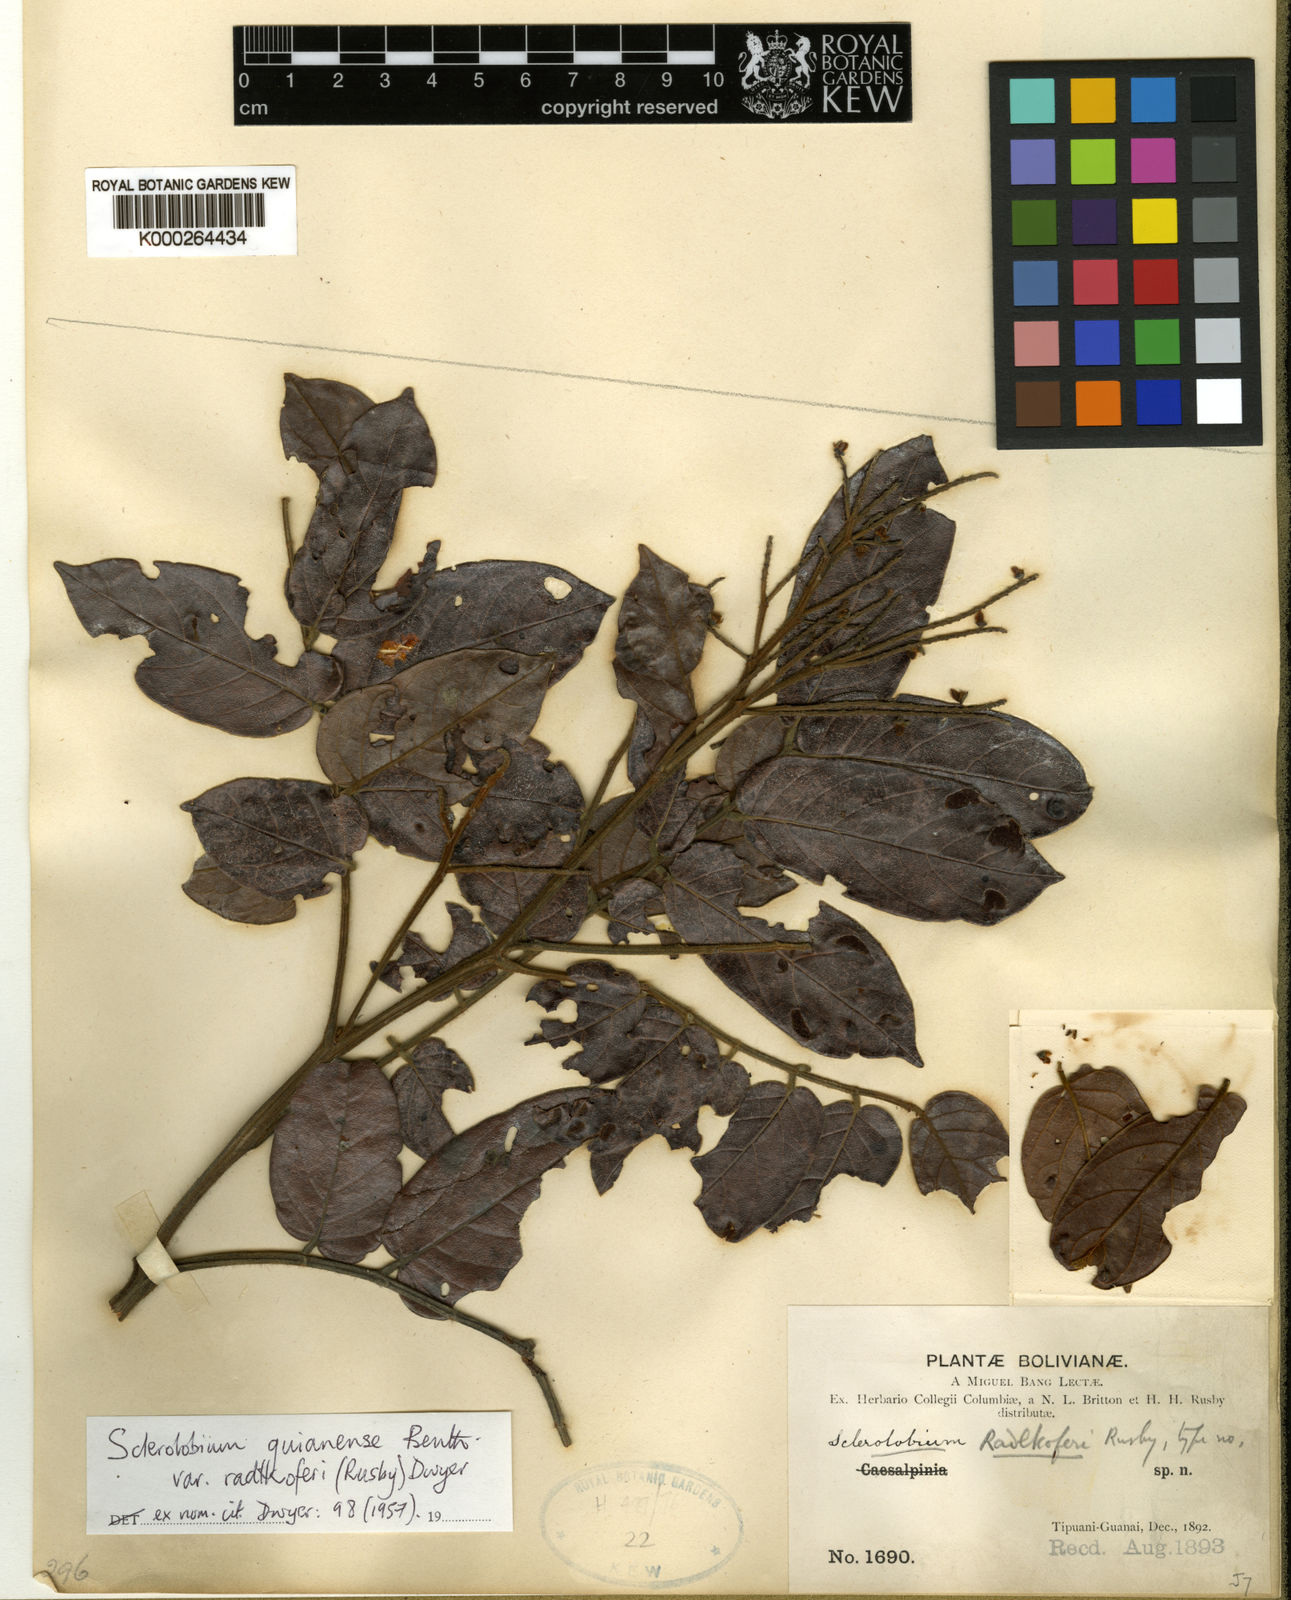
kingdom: Plantae
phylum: Tracheophyta
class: Magnoliopsida
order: Fabales
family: Fabaceae
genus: Tachigali
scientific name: Tachigali guianensis
